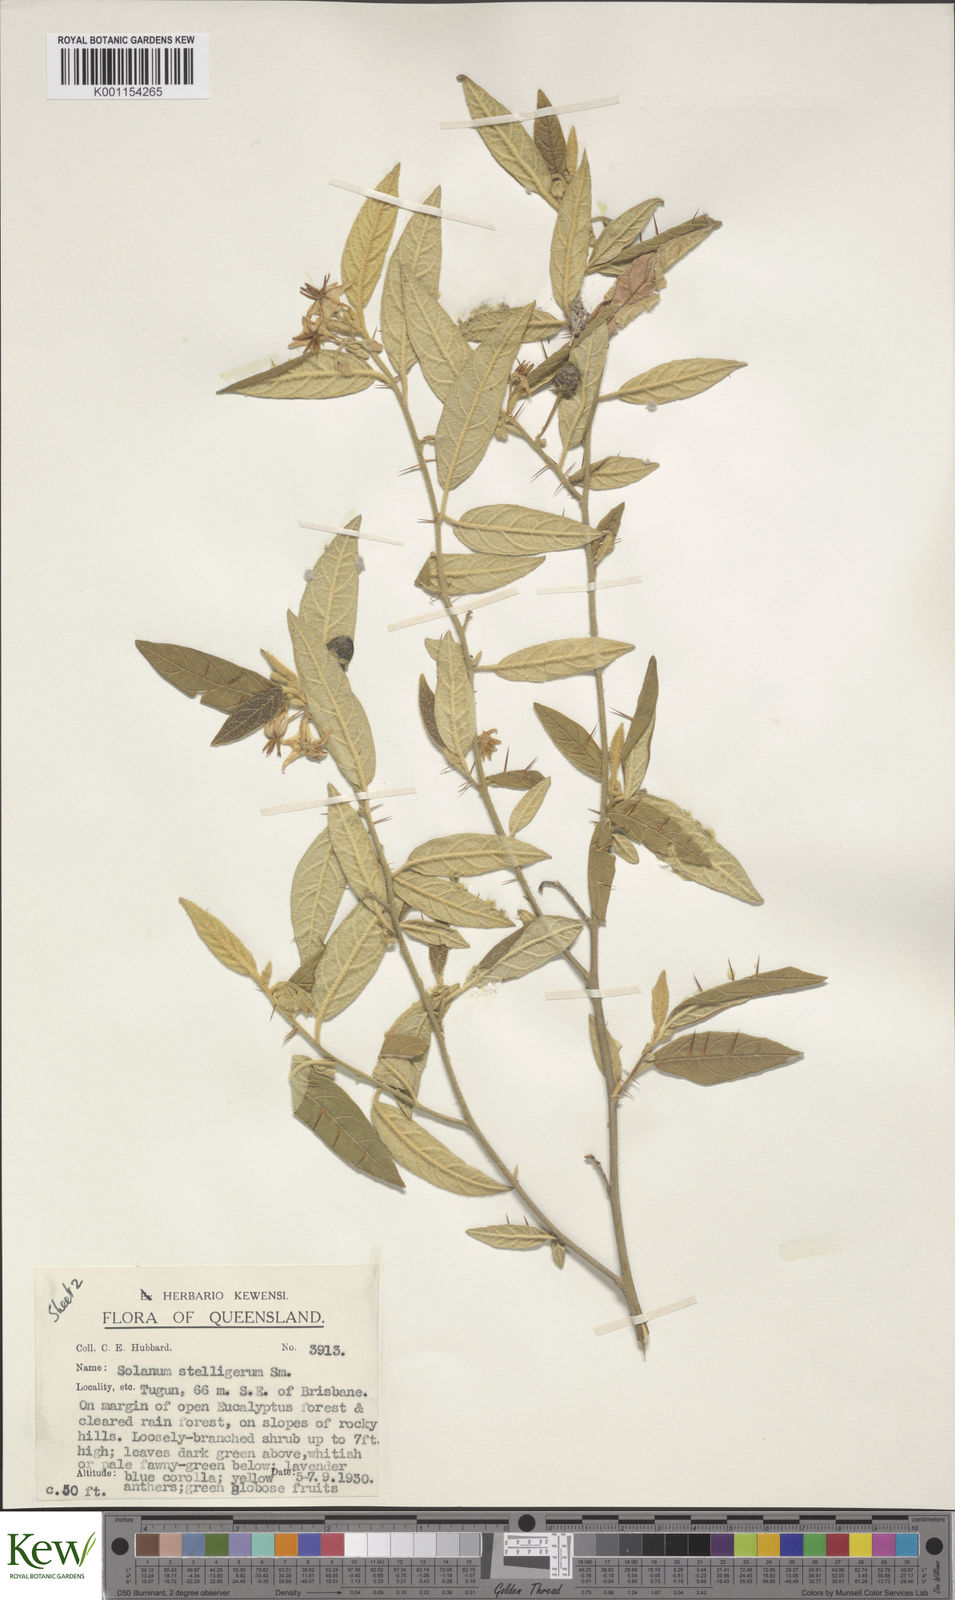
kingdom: Plantae
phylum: Tracheophyta
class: Magnoliopsida
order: Solanales
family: Solanaceae
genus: Solanum
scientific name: Solanum stelligerum
